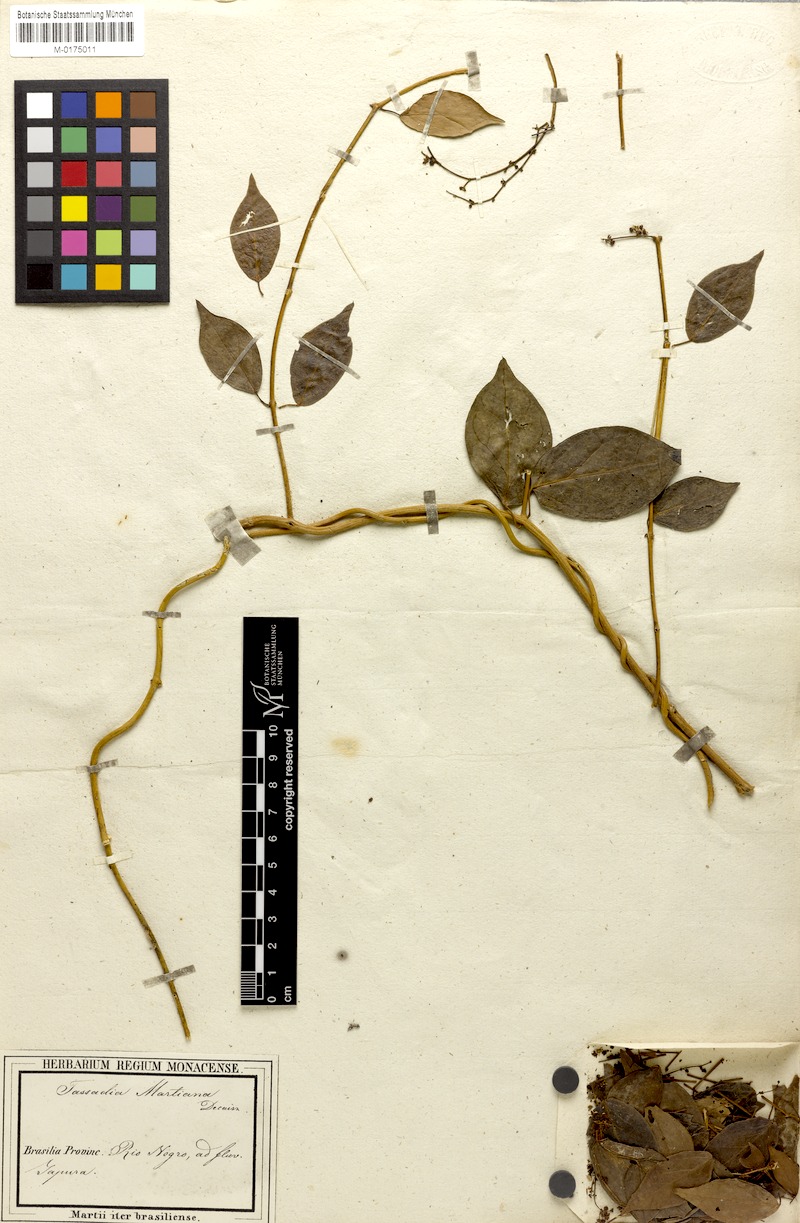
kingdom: Plantae
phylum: Tracheophyta
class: Magnoliopsida
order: Gentianales
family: Apocynaceae
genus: Tassadia
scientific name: Tassadia martiana
